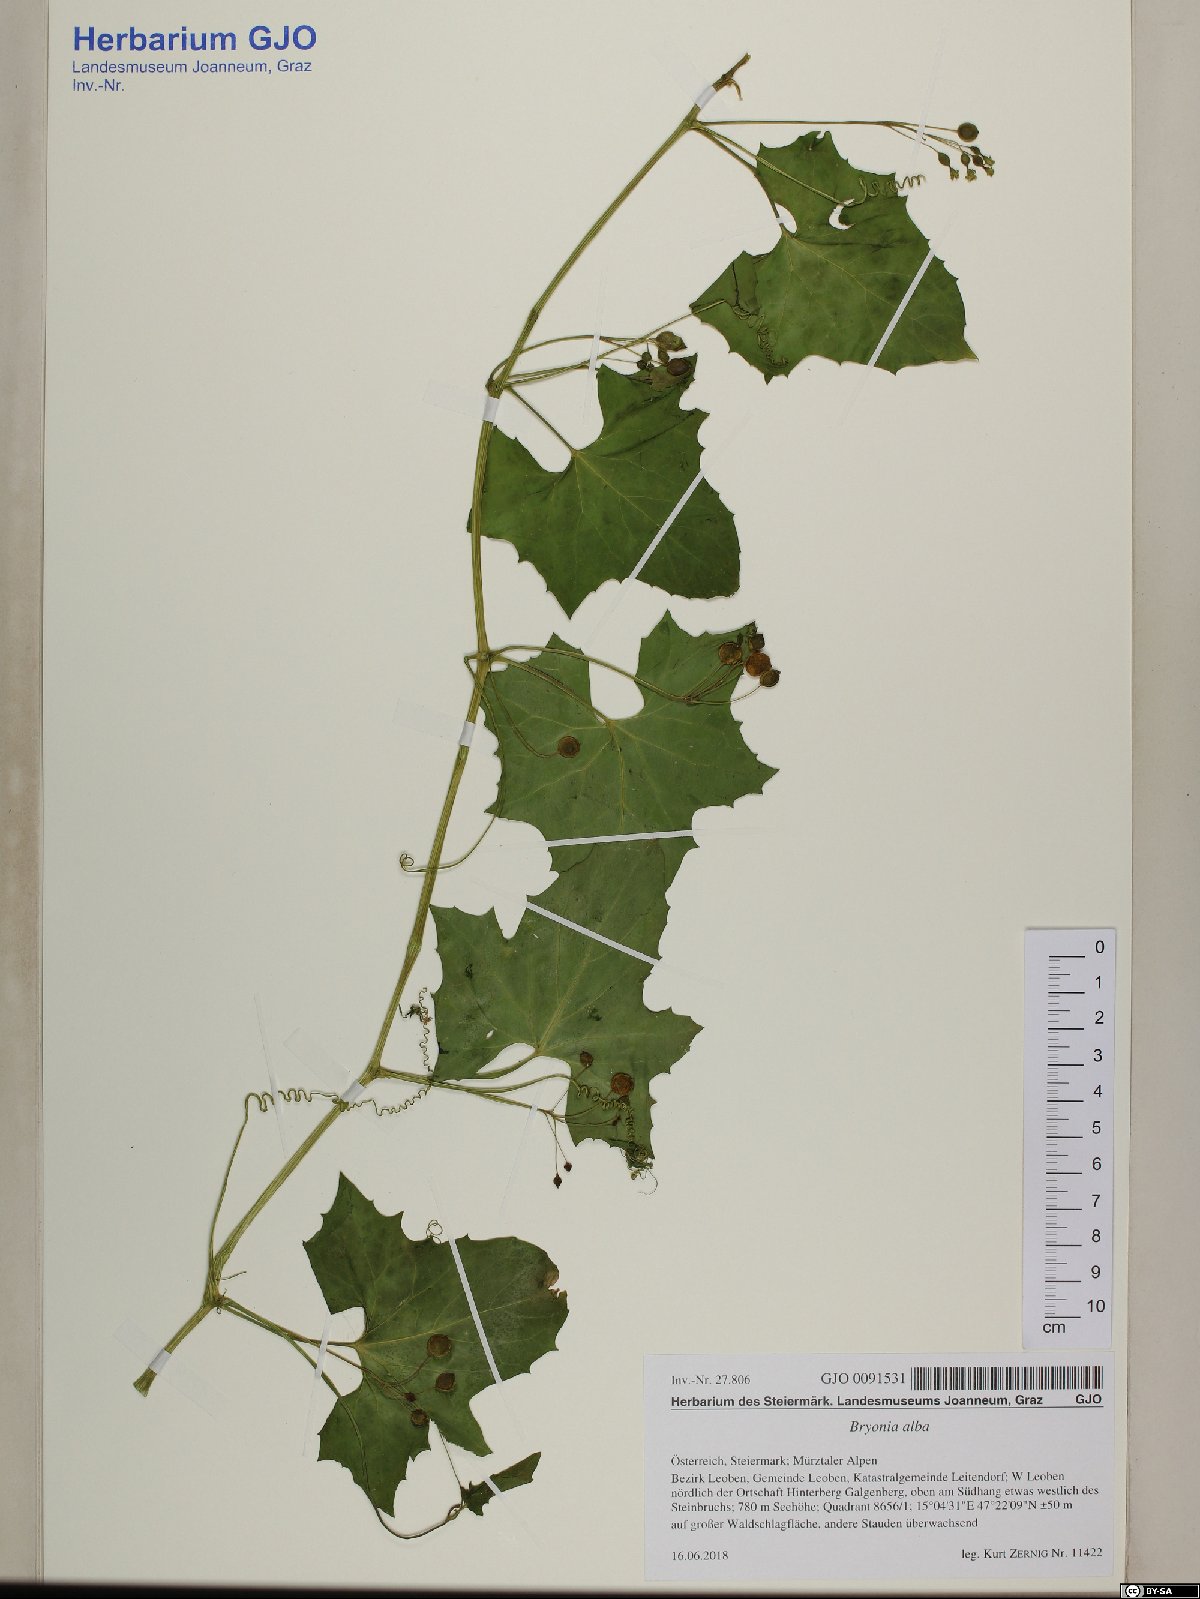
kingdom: Plantae
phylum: Tracheophyta
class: Magnoliopsida
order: Cucurbitales
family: Cucurbitaceae
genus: Bryonia
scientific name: Bryonia alba
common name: White bryony
